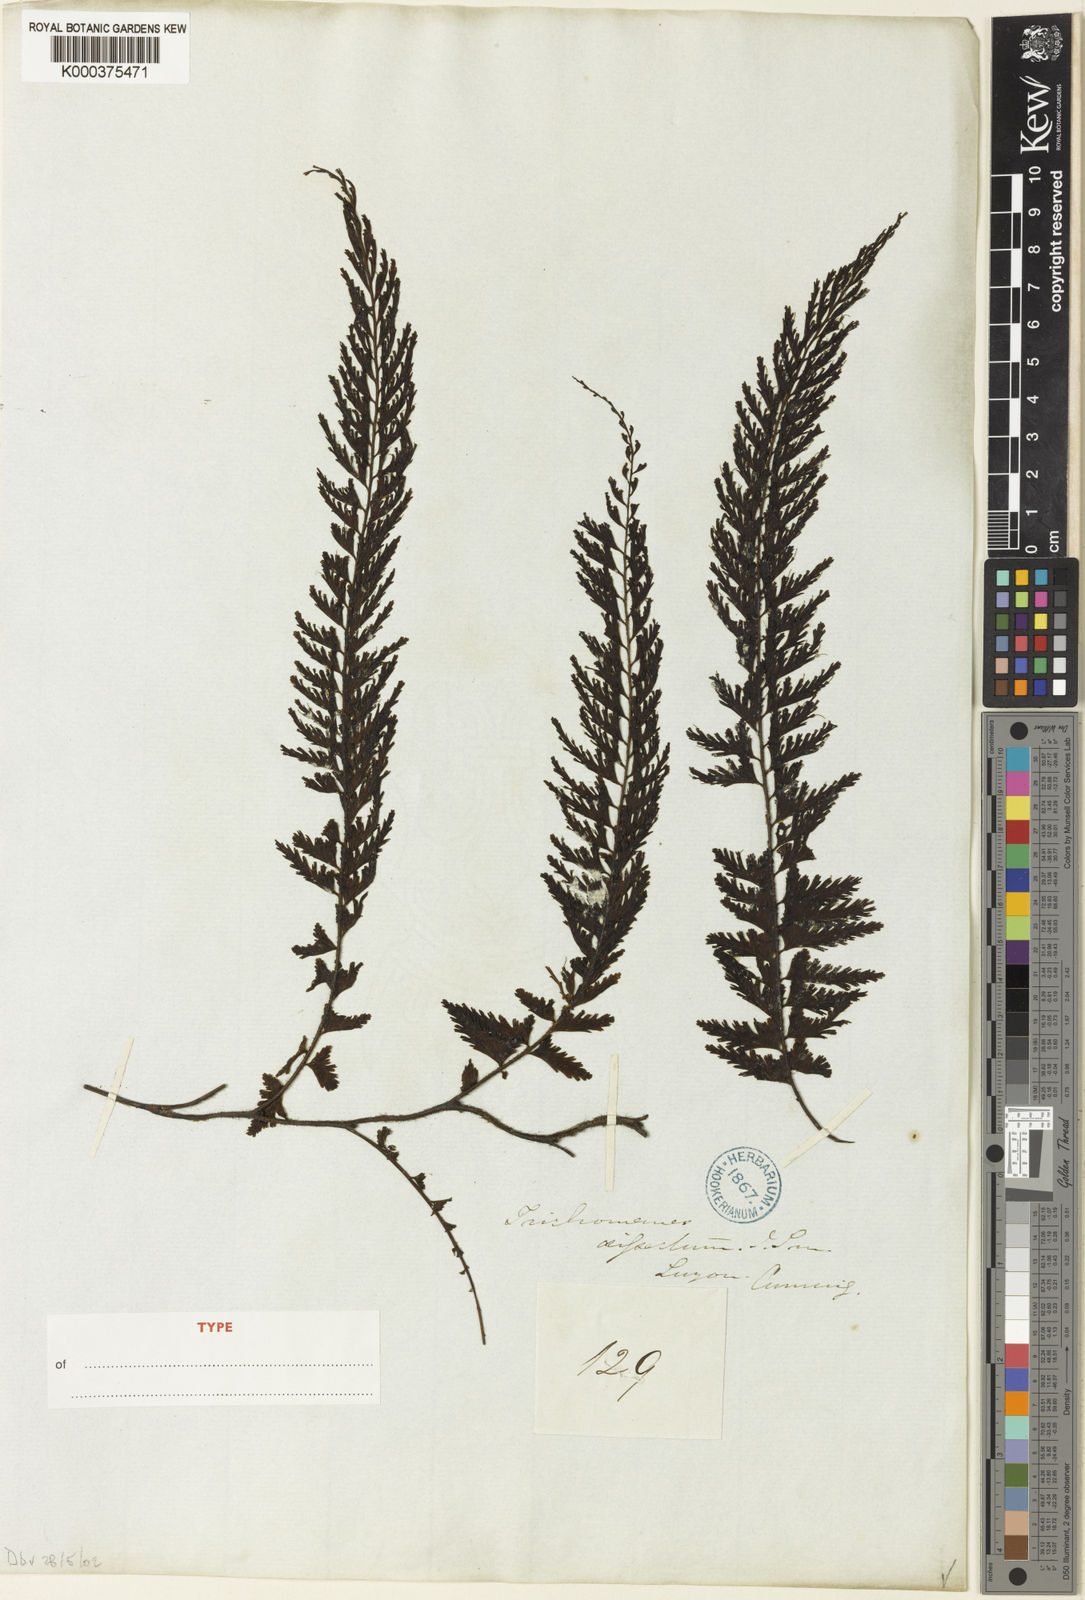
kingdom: Plantae
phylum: Tracheophyta
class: Polypodiopsida
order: Hymenophyllales
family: Hymenophyllaceae
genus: Vandenboschia
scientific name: Vandenboschia auriculata
